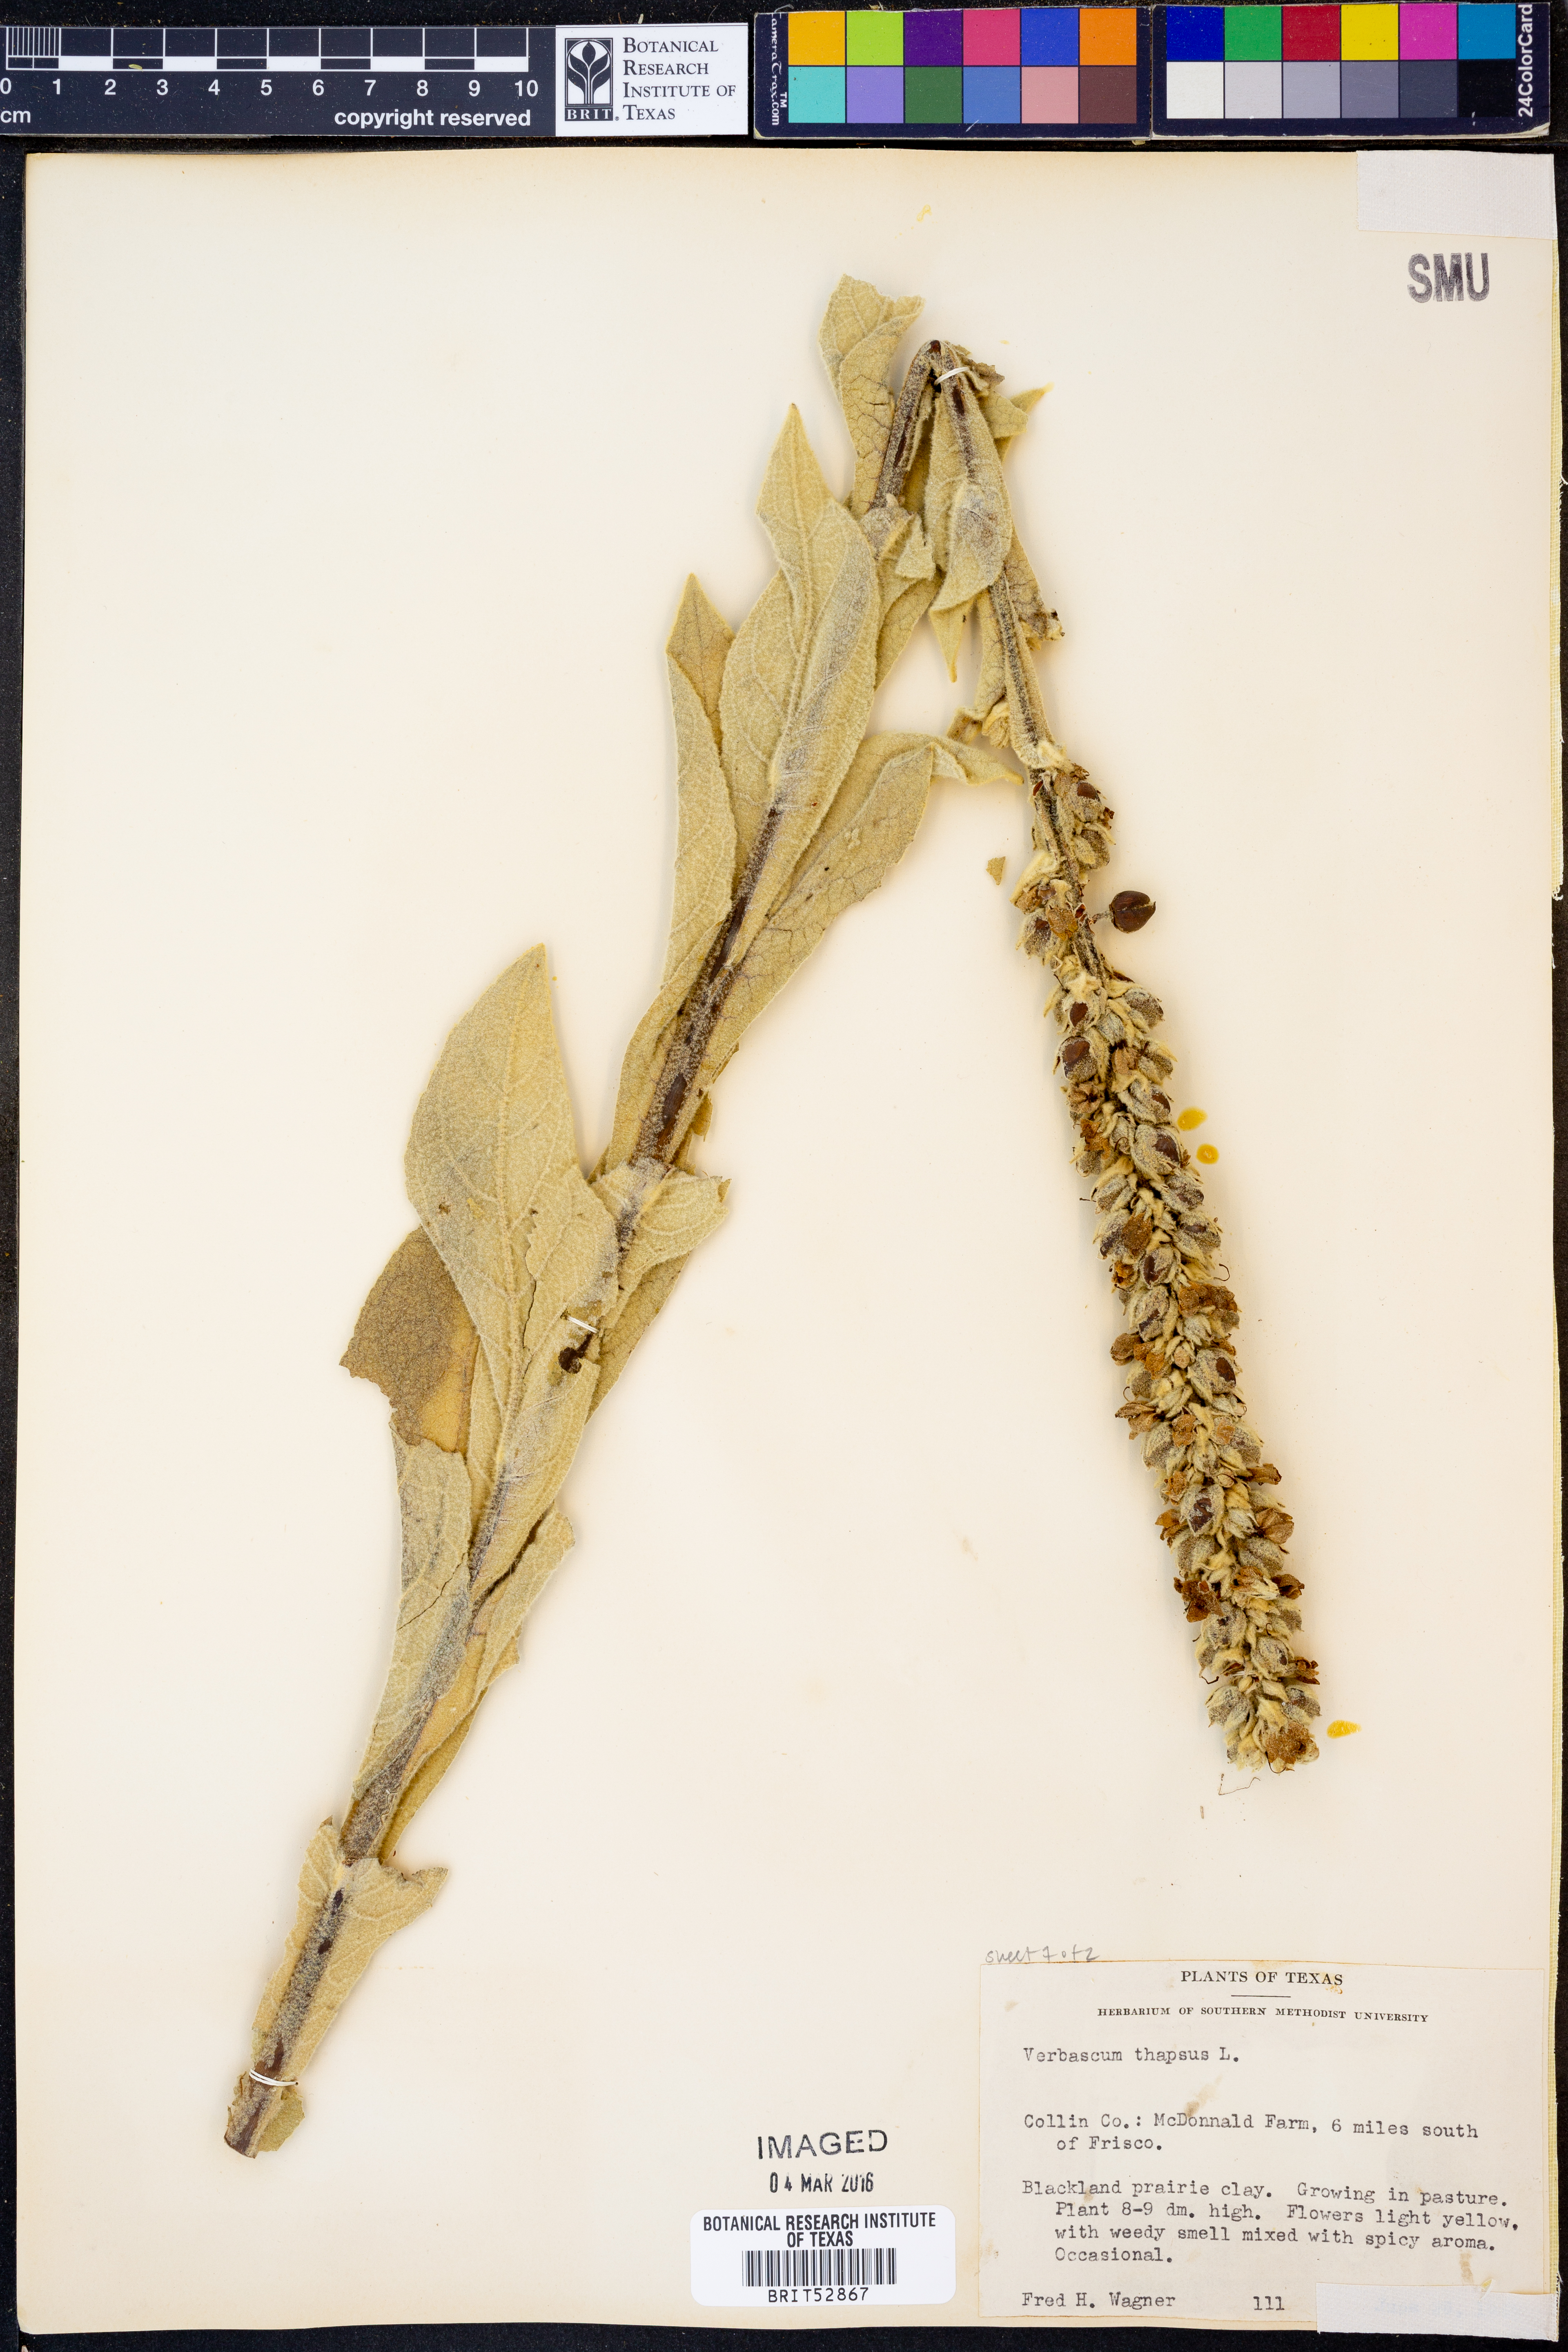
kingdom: Plantae
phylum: Tracheophyta
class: Magnoliopsida
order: Lamiales
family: Scrophulariaceae
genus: Verbascum
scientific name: Verbascum thapsus
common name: Common mullein
